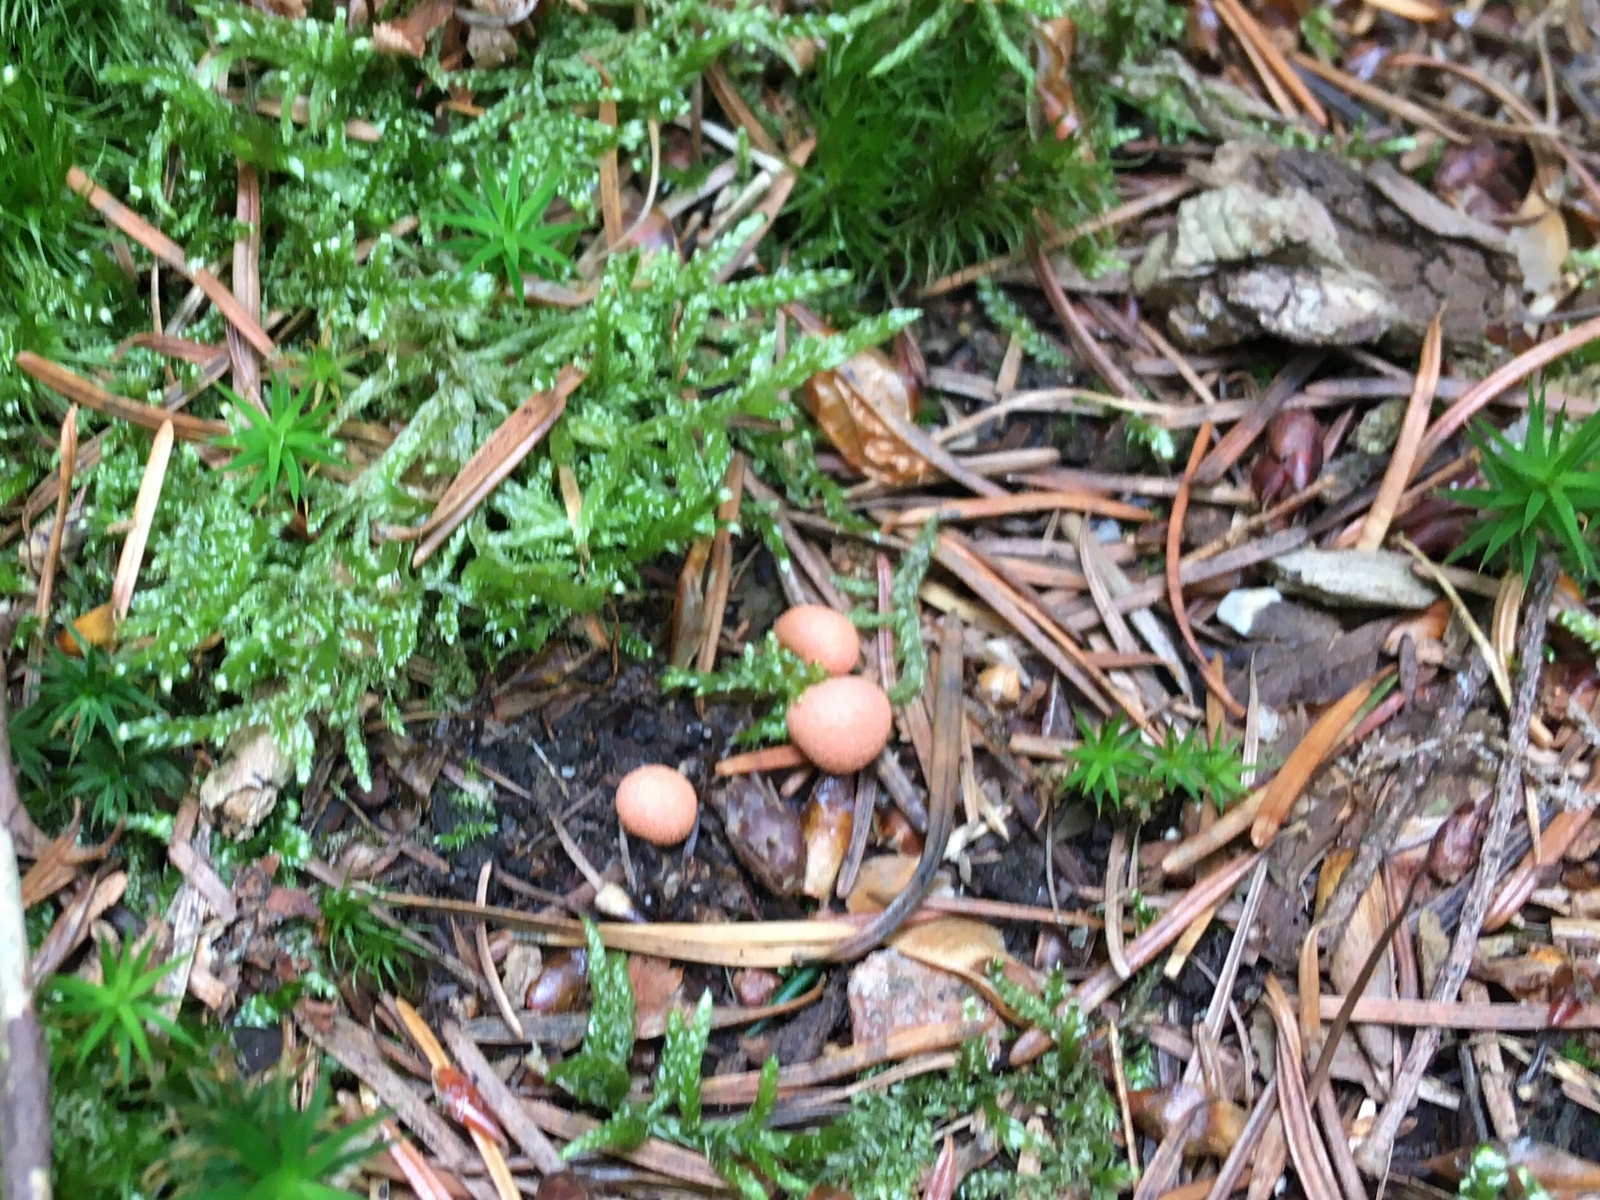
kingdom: Protozoa
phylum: Mycetozoa
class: Myxomycetes
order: Cribrariales
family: Tubiferaceae
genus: Lycogala
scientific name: Lycogala epidendrum
